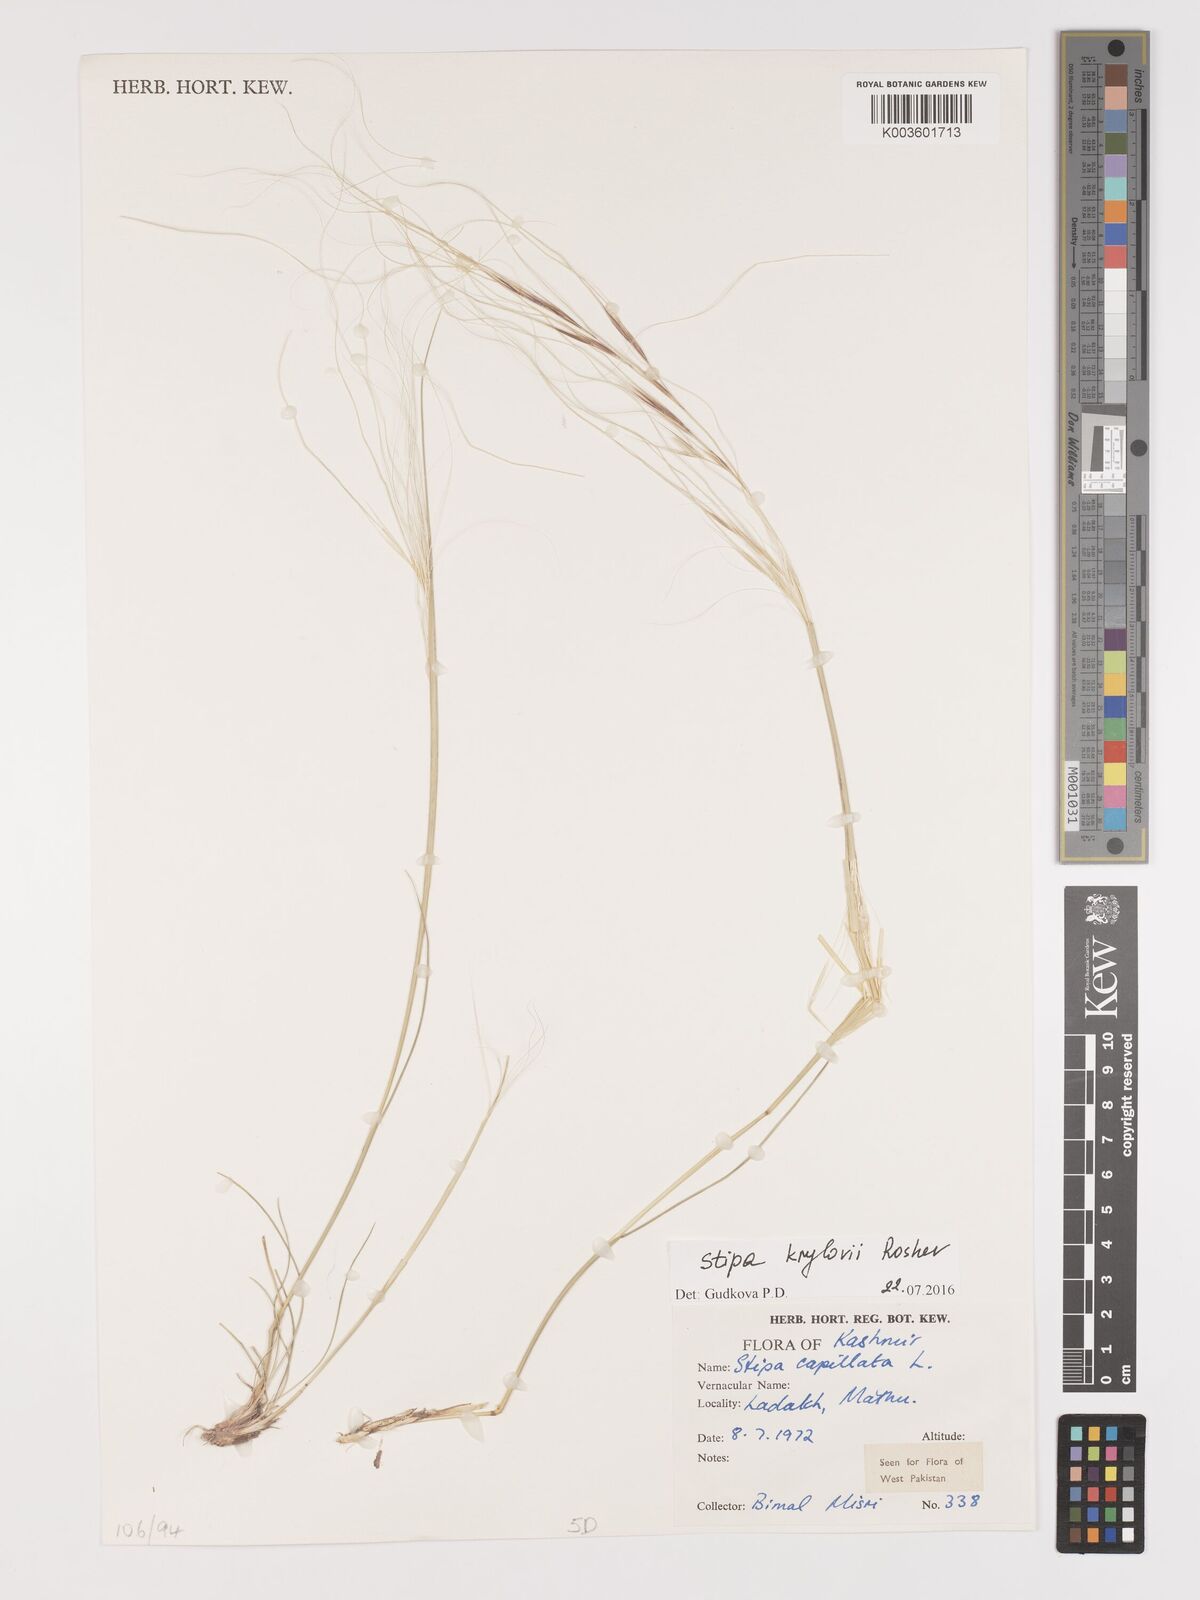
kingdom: Plantae
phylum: Tracheophyta
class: Liliopsida
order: Poales
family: Poaceae
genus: Stipa
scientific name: Stipa krylovii
